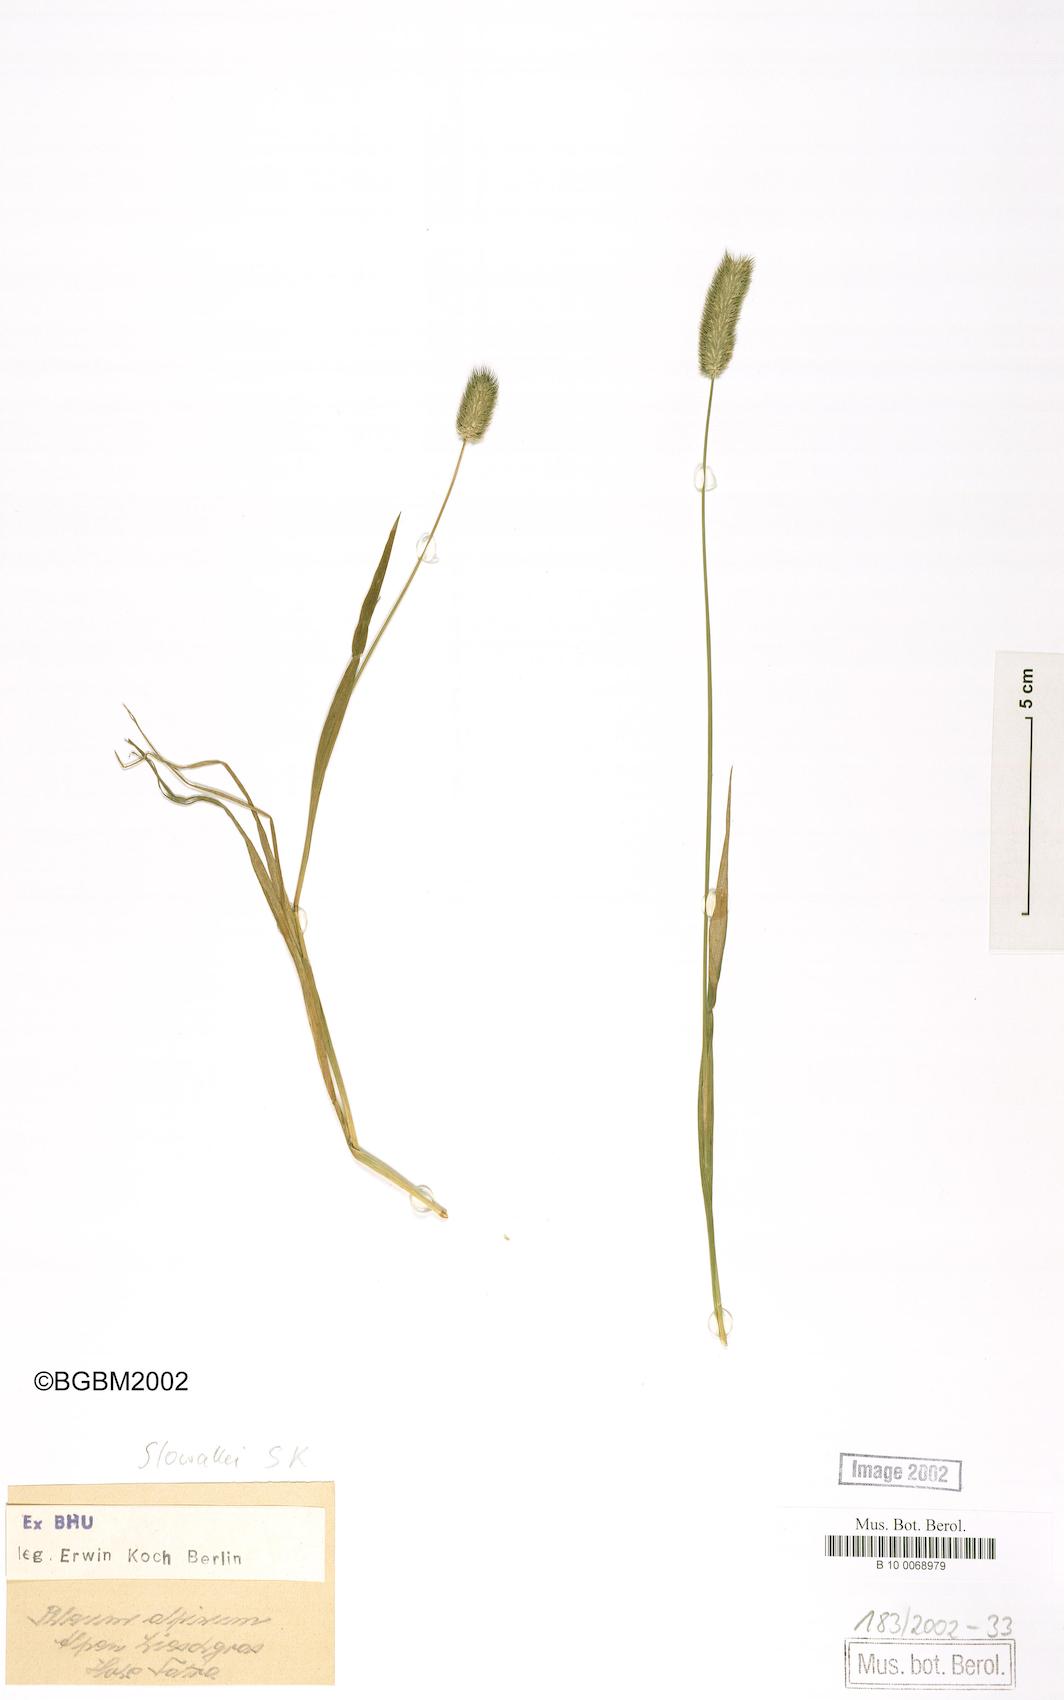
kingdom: Plantae
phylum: Tracheophyta
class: Liliopsida
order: Poales
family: Poaceae
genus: Phleum
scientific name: Phleum alpinum
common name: Alpine cat's-tail
